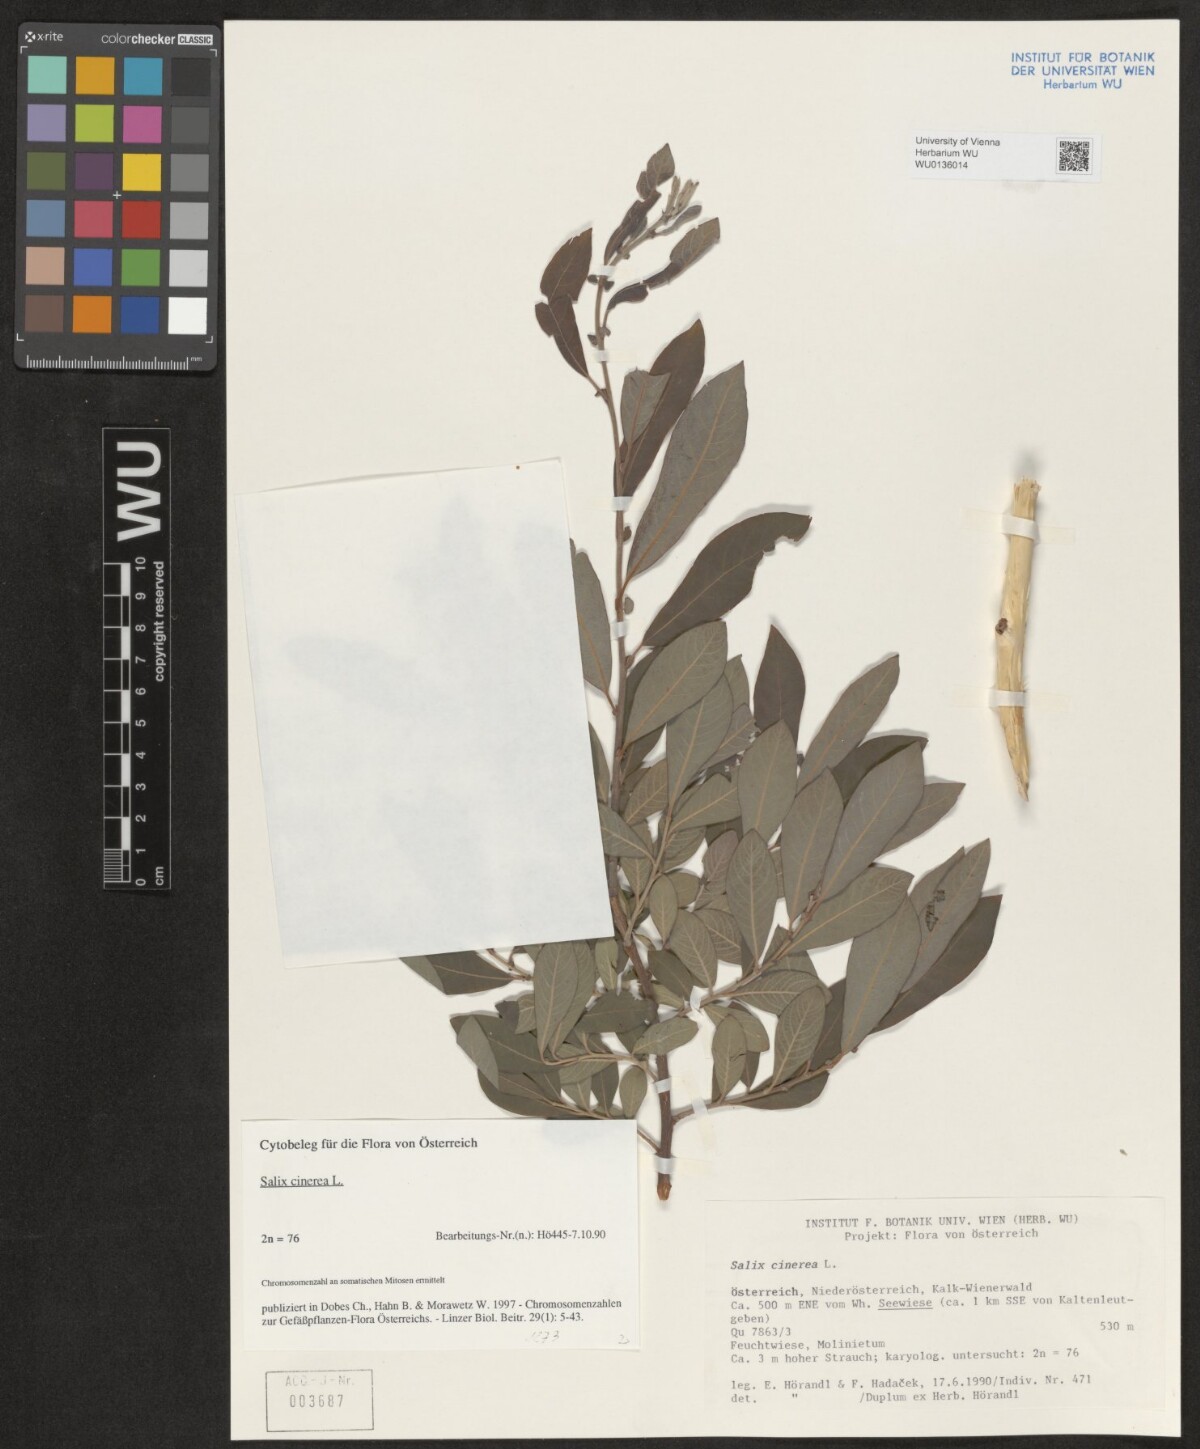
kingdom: Plantae
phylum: Tracheophyta
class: Magnoliopsida
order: Malpighiales
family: Salicaceae
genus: Salix
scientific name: Salix cinerea
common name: Common sallow
